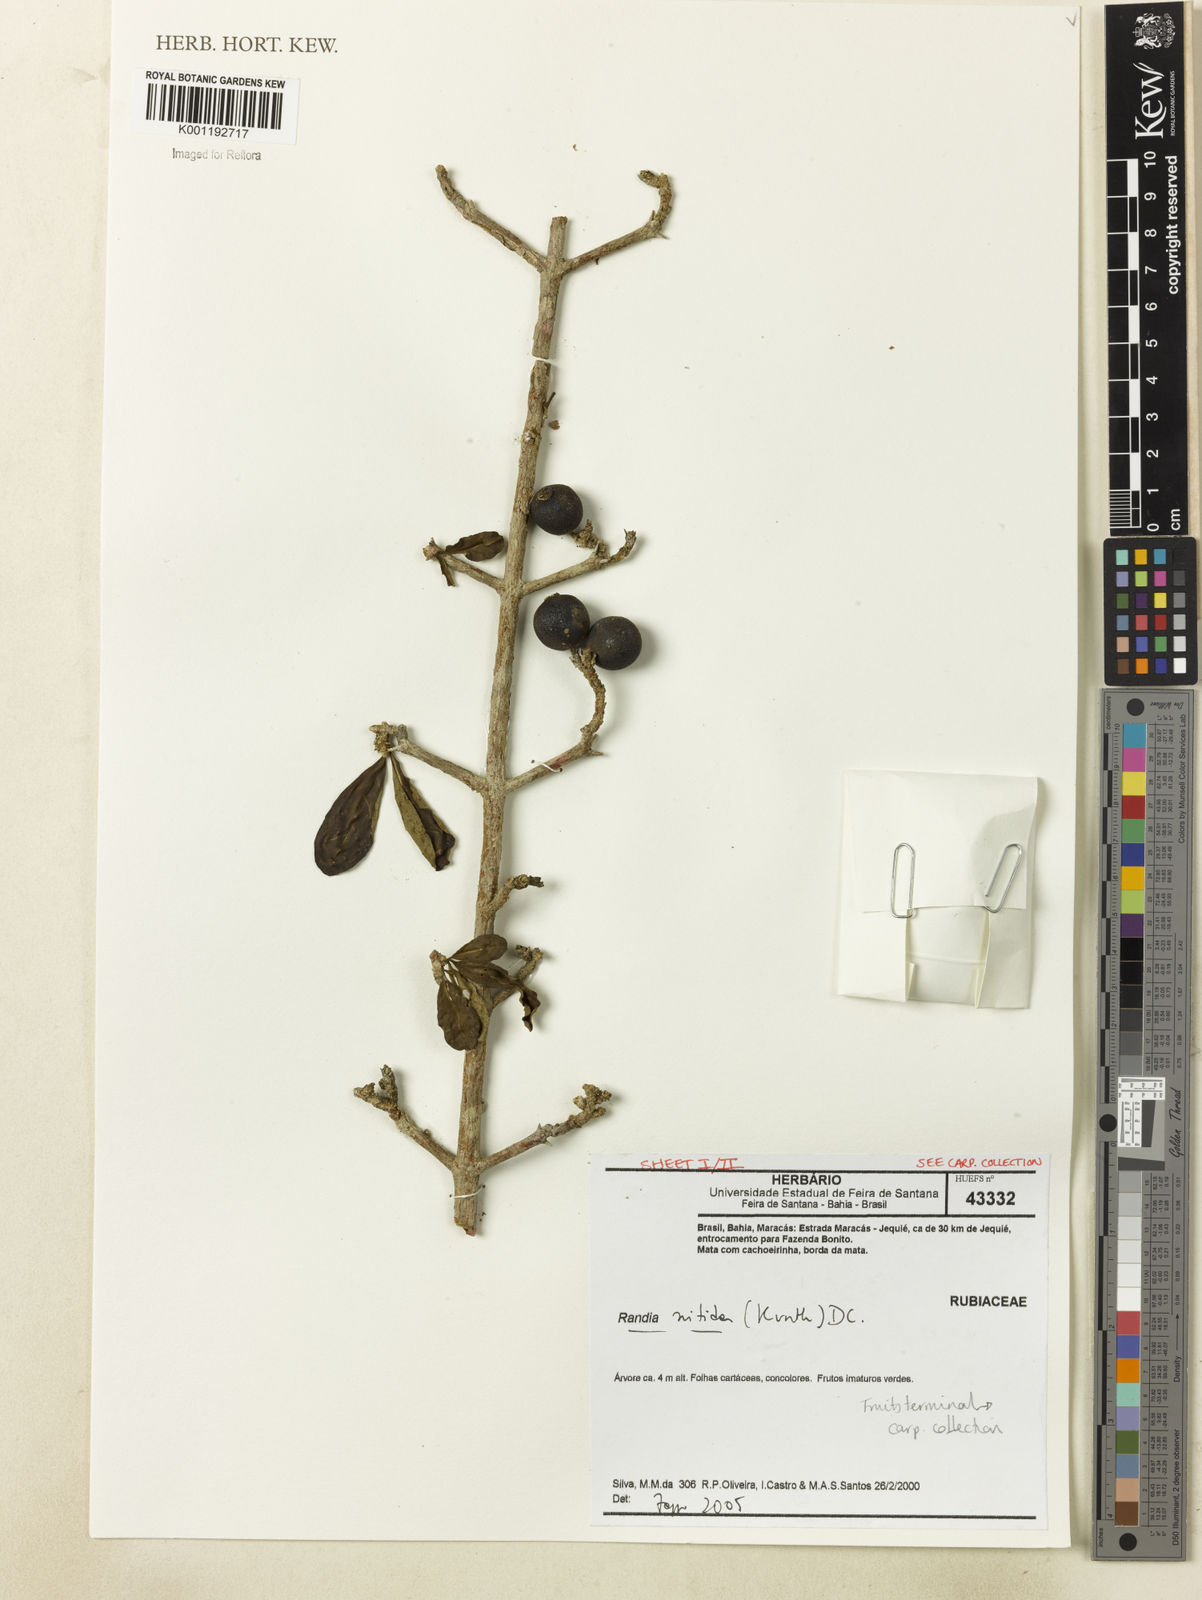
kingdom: Plantae
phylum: Tracheophyta
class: Magnoliopsida
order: Gentianales
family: Rubiaceae
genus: Randia
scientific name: Randia nitida
